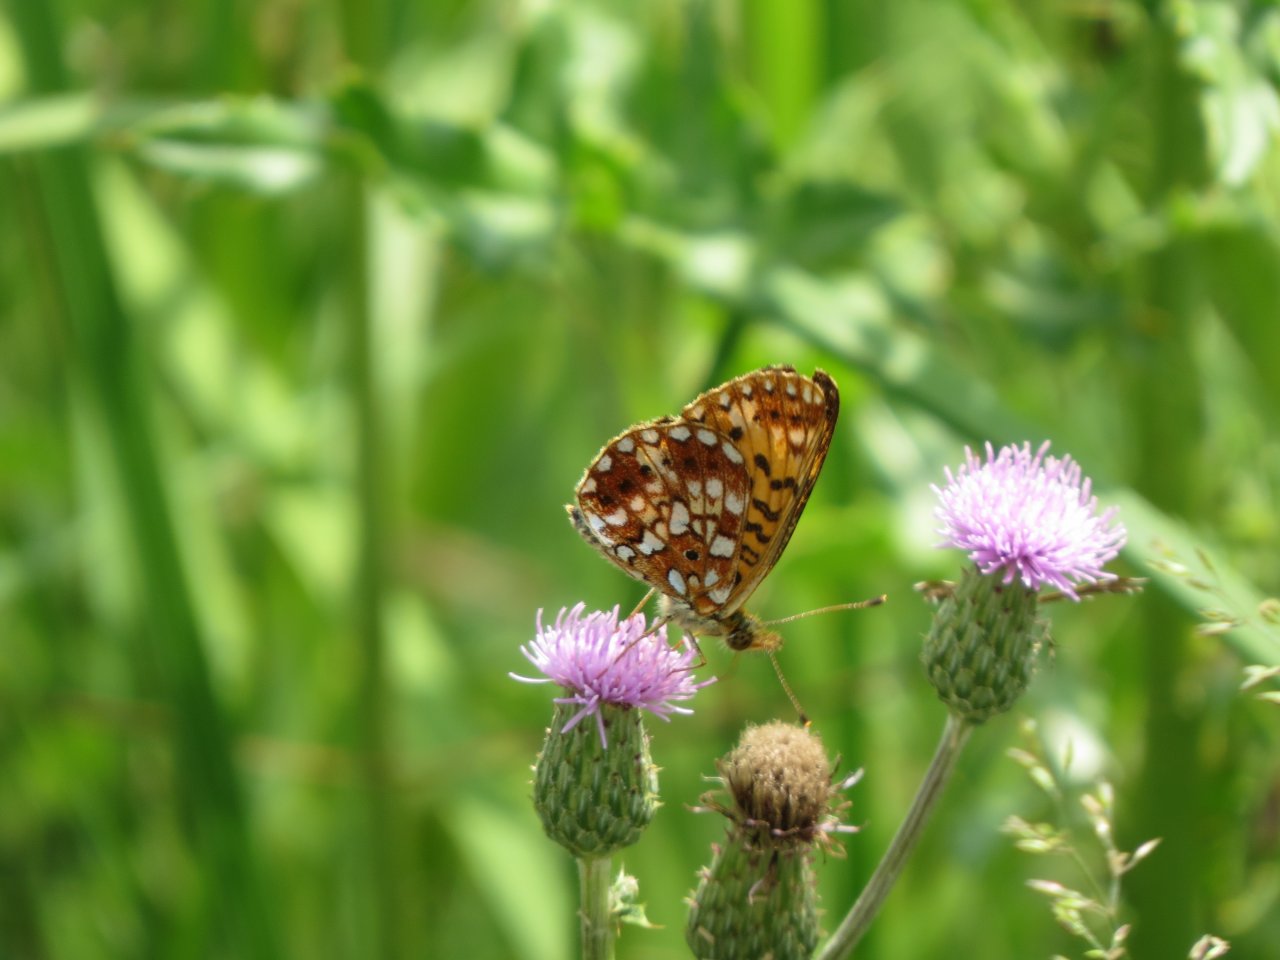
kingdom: Animalia
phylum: Arthropoda
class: Insecta
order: Lepidoptera
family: Nymphalidae
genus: Boloria
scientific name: Boloria selene
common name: Silver-bordered Fritillary
